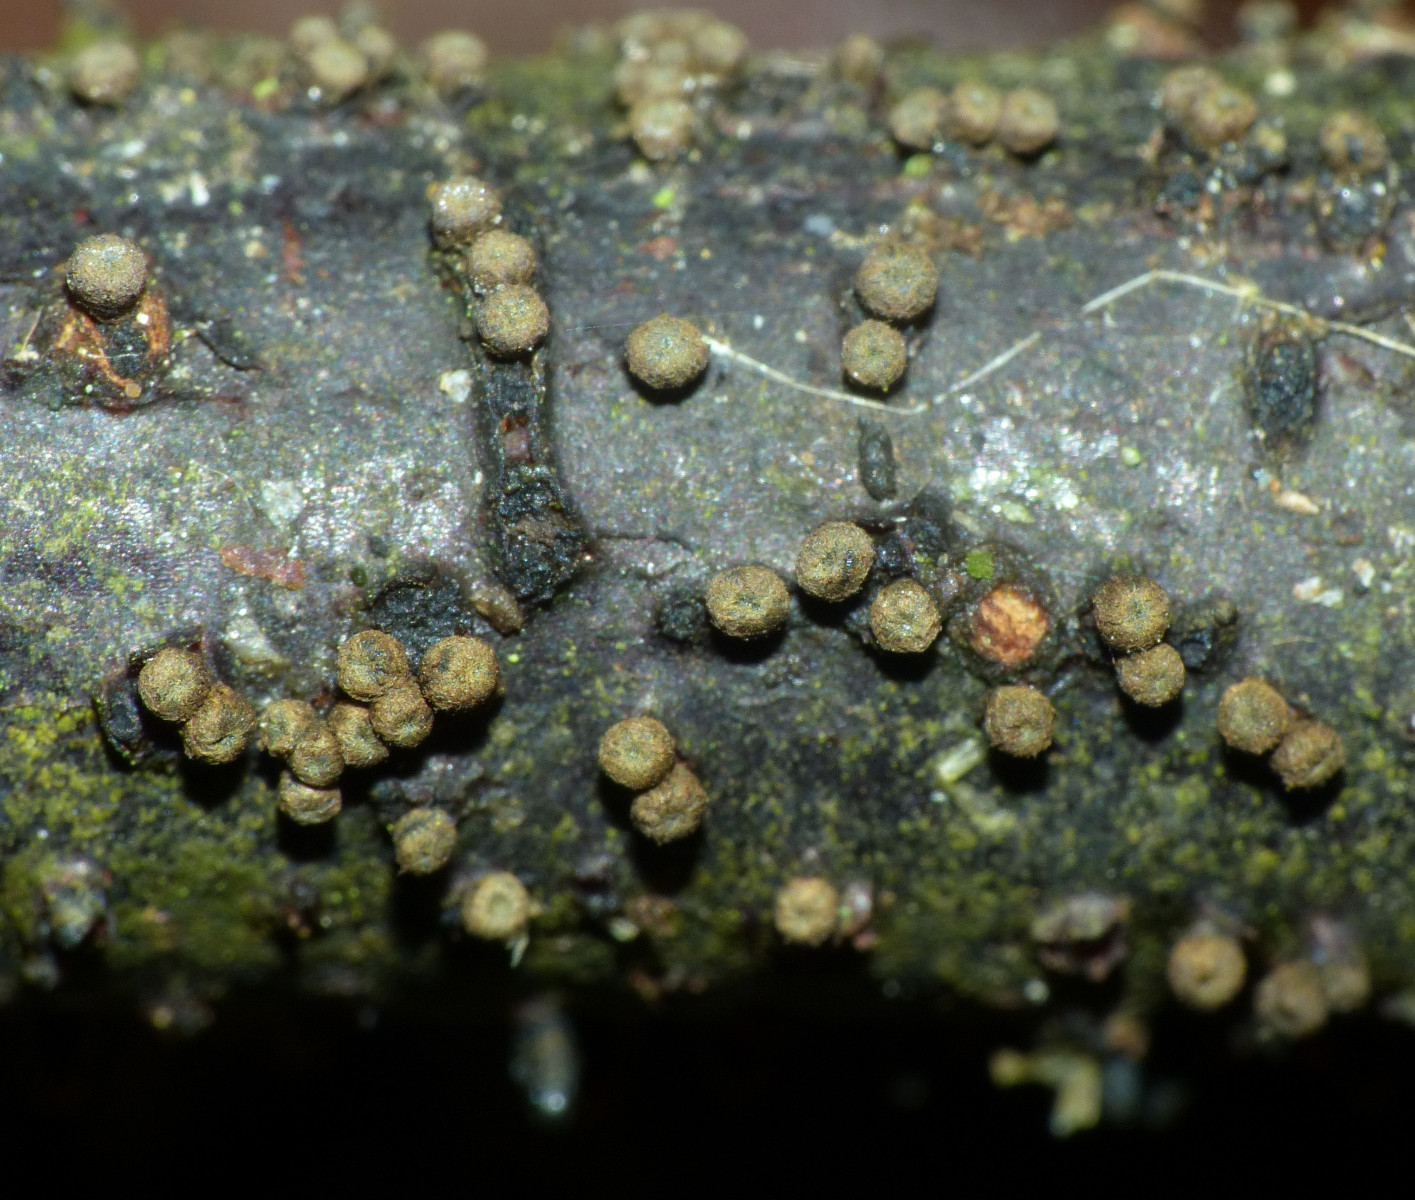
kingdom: Fungi
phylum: Ascomycota
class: Leotiomycetes
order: Helotiales
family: Godroniaceae
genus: Godronia
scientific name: Godronia uberiformis
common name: solbær-urneskive
